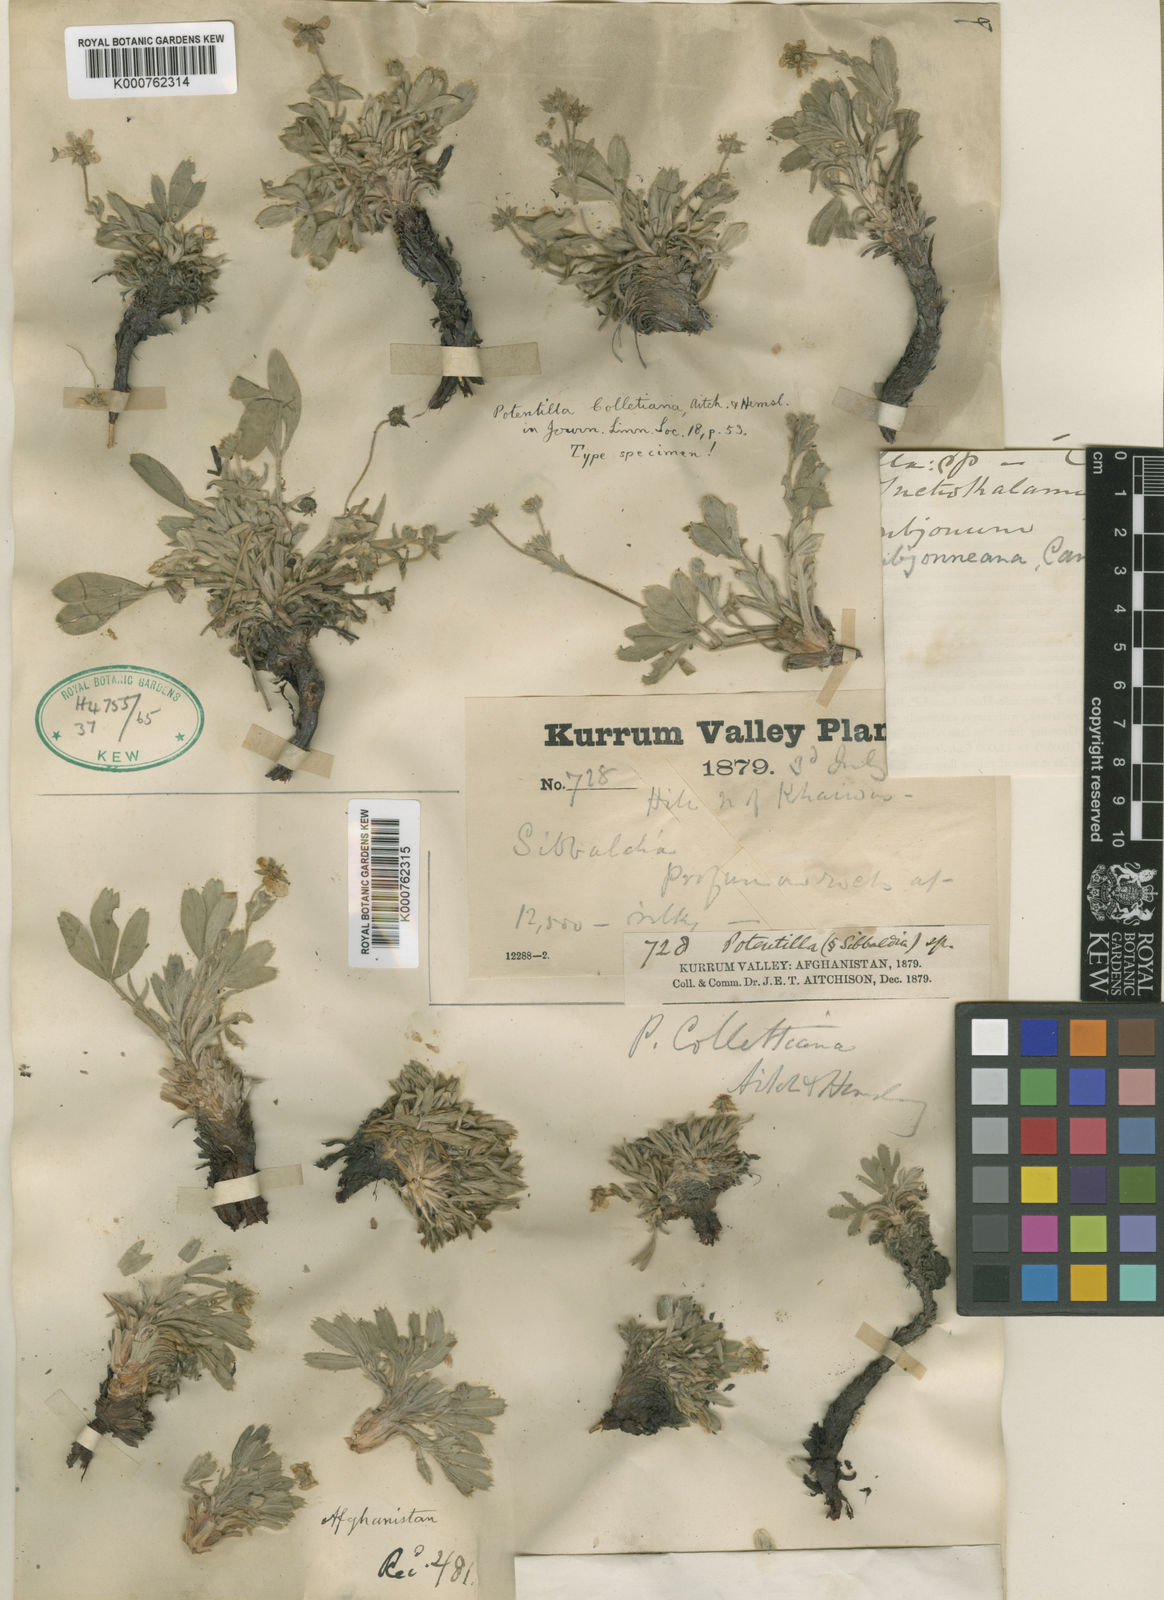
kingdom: Plantae
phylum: Tracheophyta
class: Magnoliopsida
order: Rosales
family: Rosaceae
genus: Potentilla
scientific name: Potentilla collettiana
